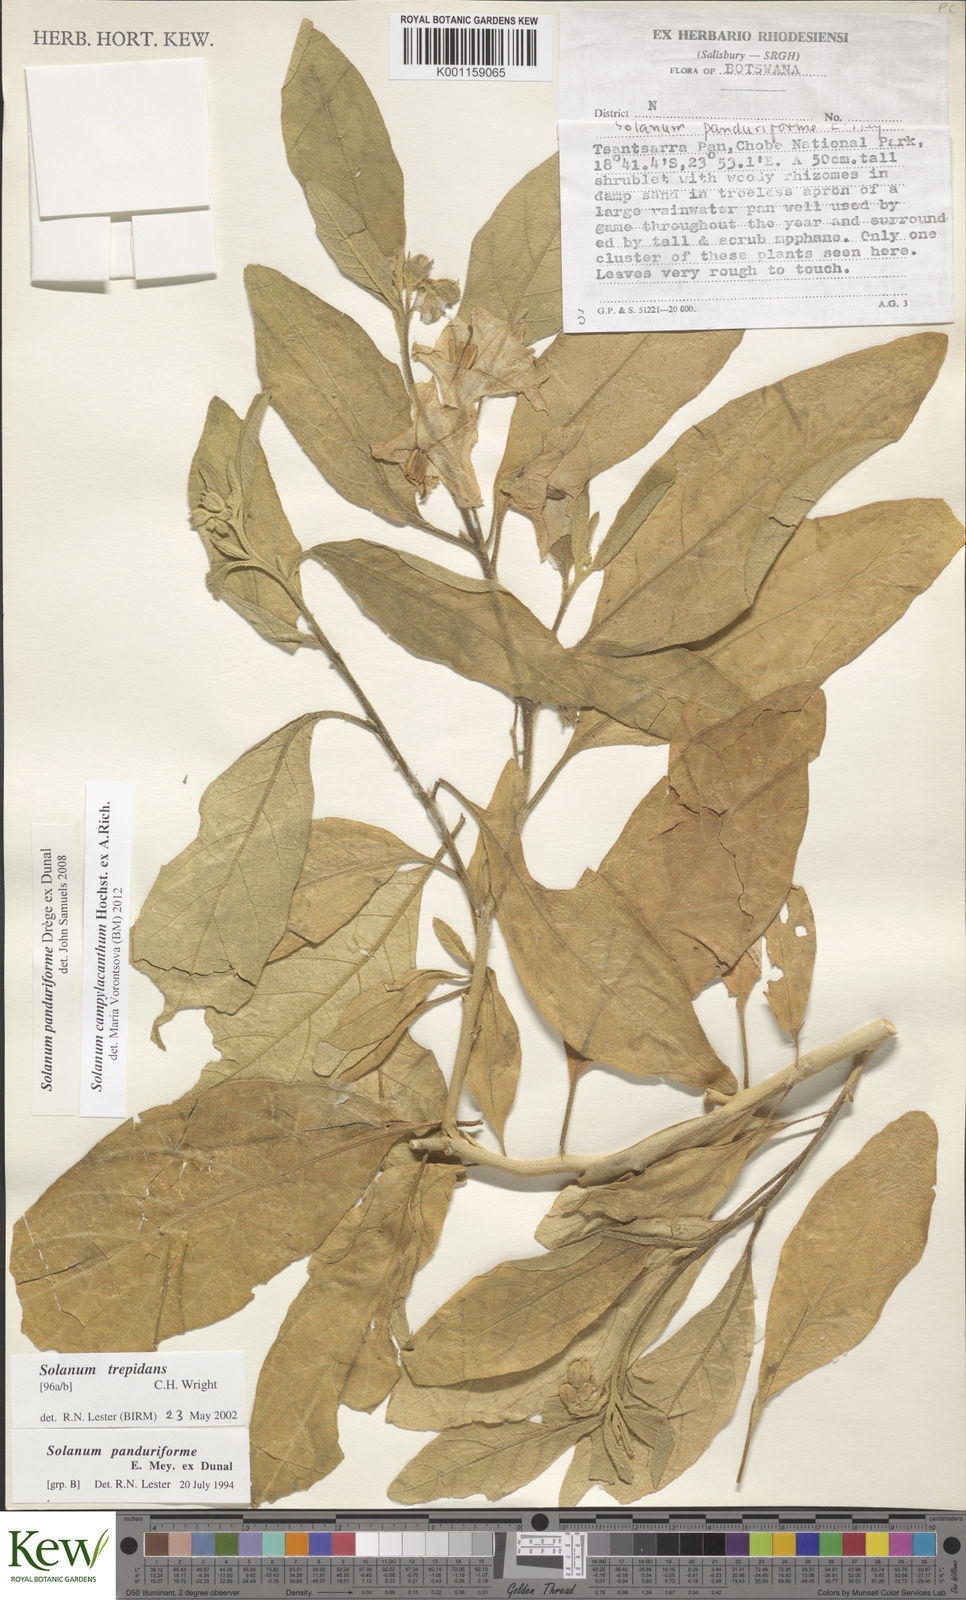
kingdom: Plantae
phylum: Tracheophyta
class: Magnoliopsida
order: Solanales
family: Solanaceae
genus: Solanum
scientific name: Solanum campylacanthum
